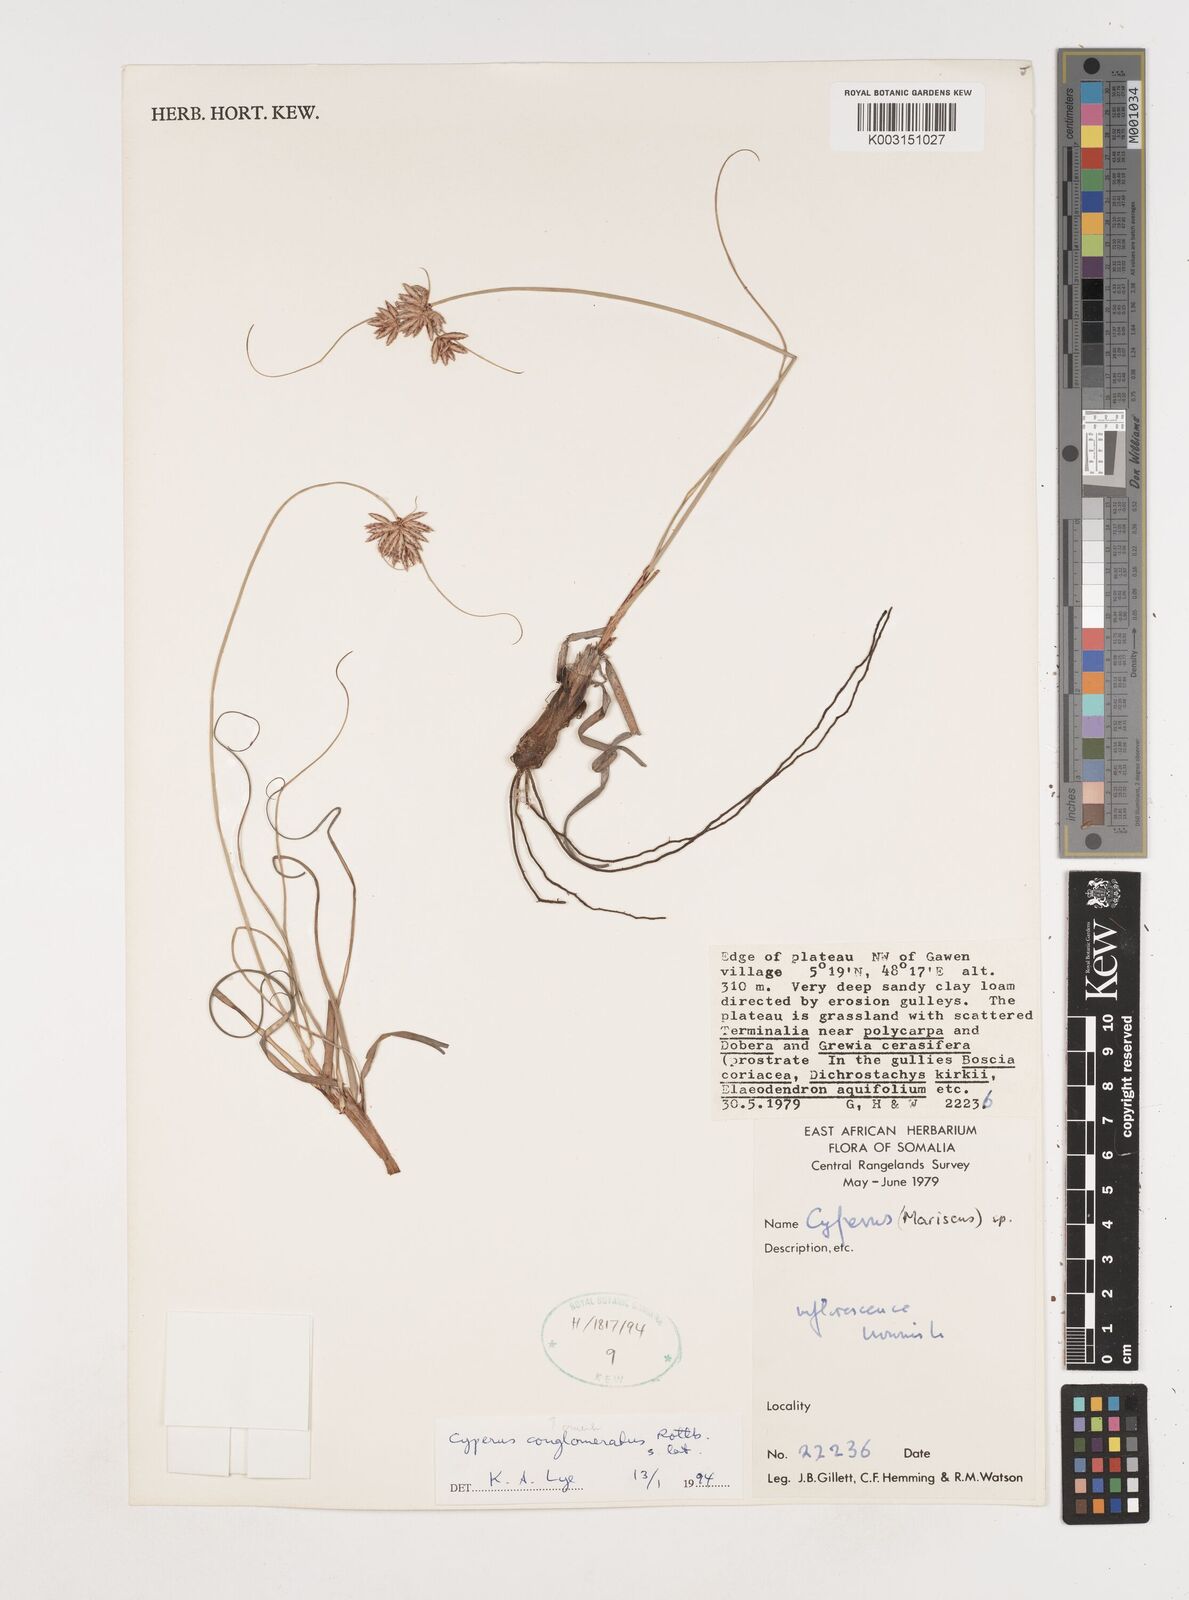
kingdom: Plantae
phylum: Tracheophyta
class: Liliopsida
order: Poales
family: Cyperaceae
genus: Cyperus
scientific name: Cyperus conglomeratus
